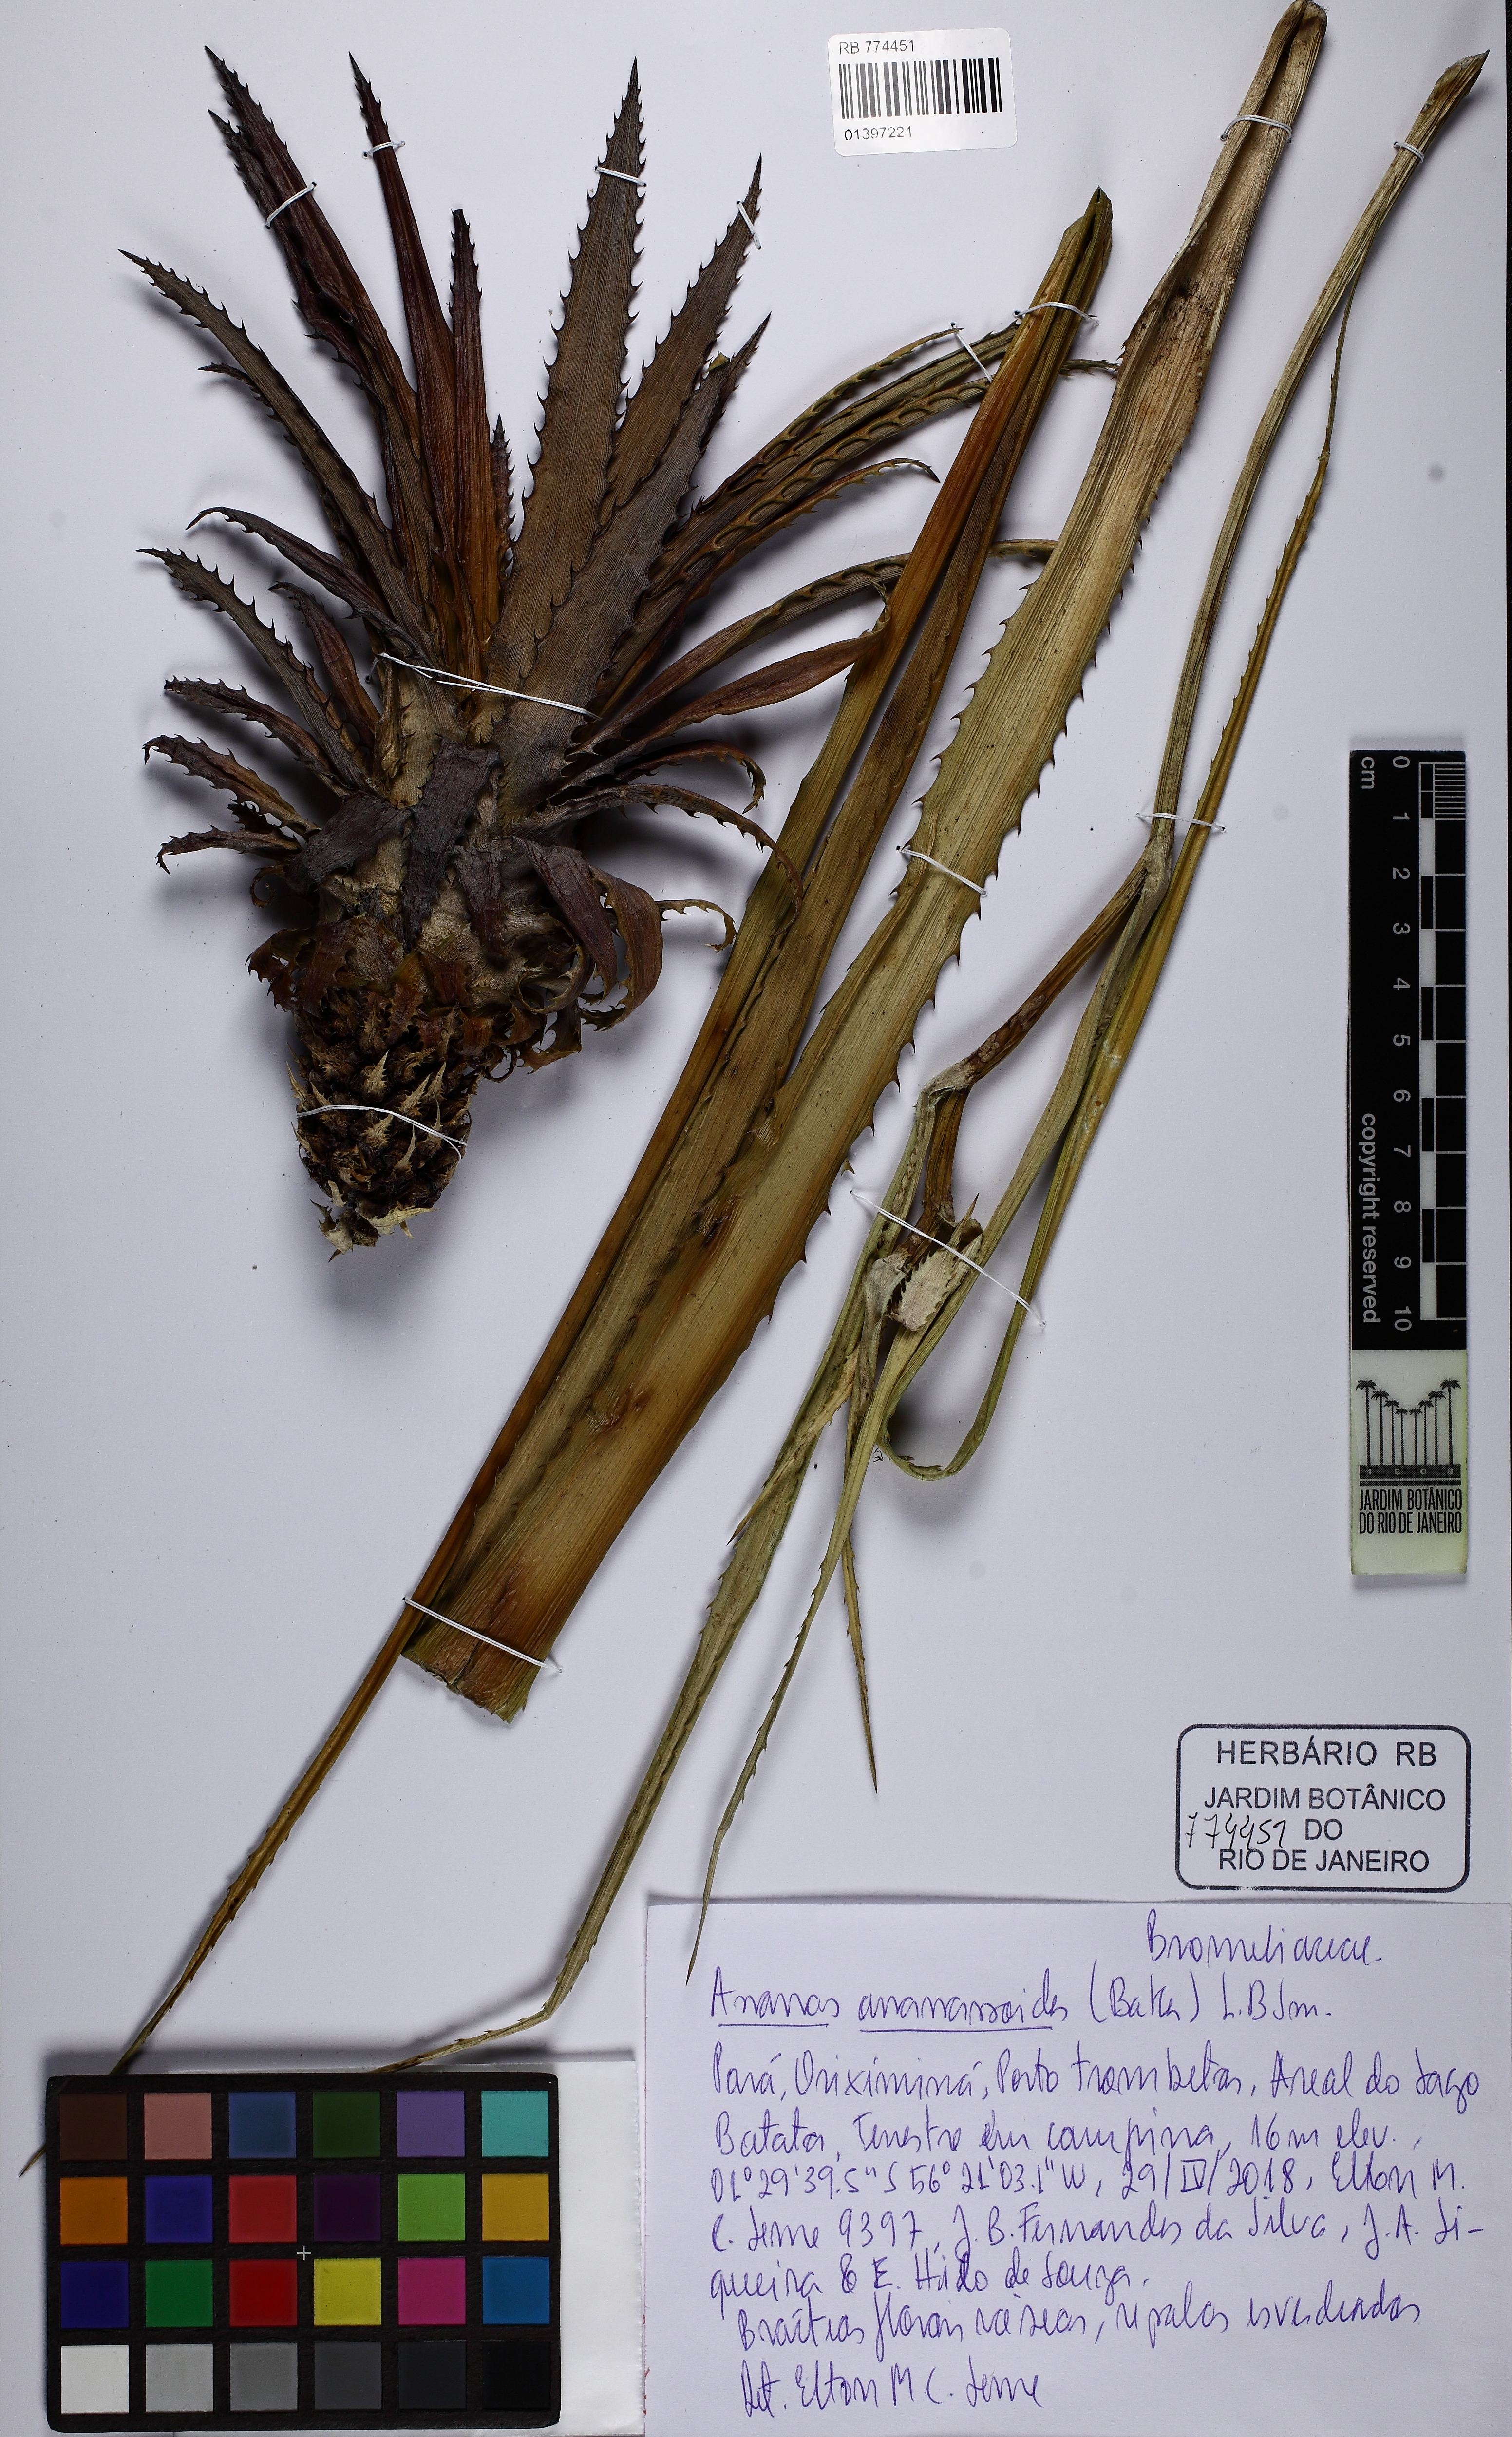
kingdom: Plantae
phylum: Tracheophyta
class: Liliopsida
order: Poales
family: Bromeliaceae
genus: Ananas
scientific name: Ananas comosus
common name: Pineapple
